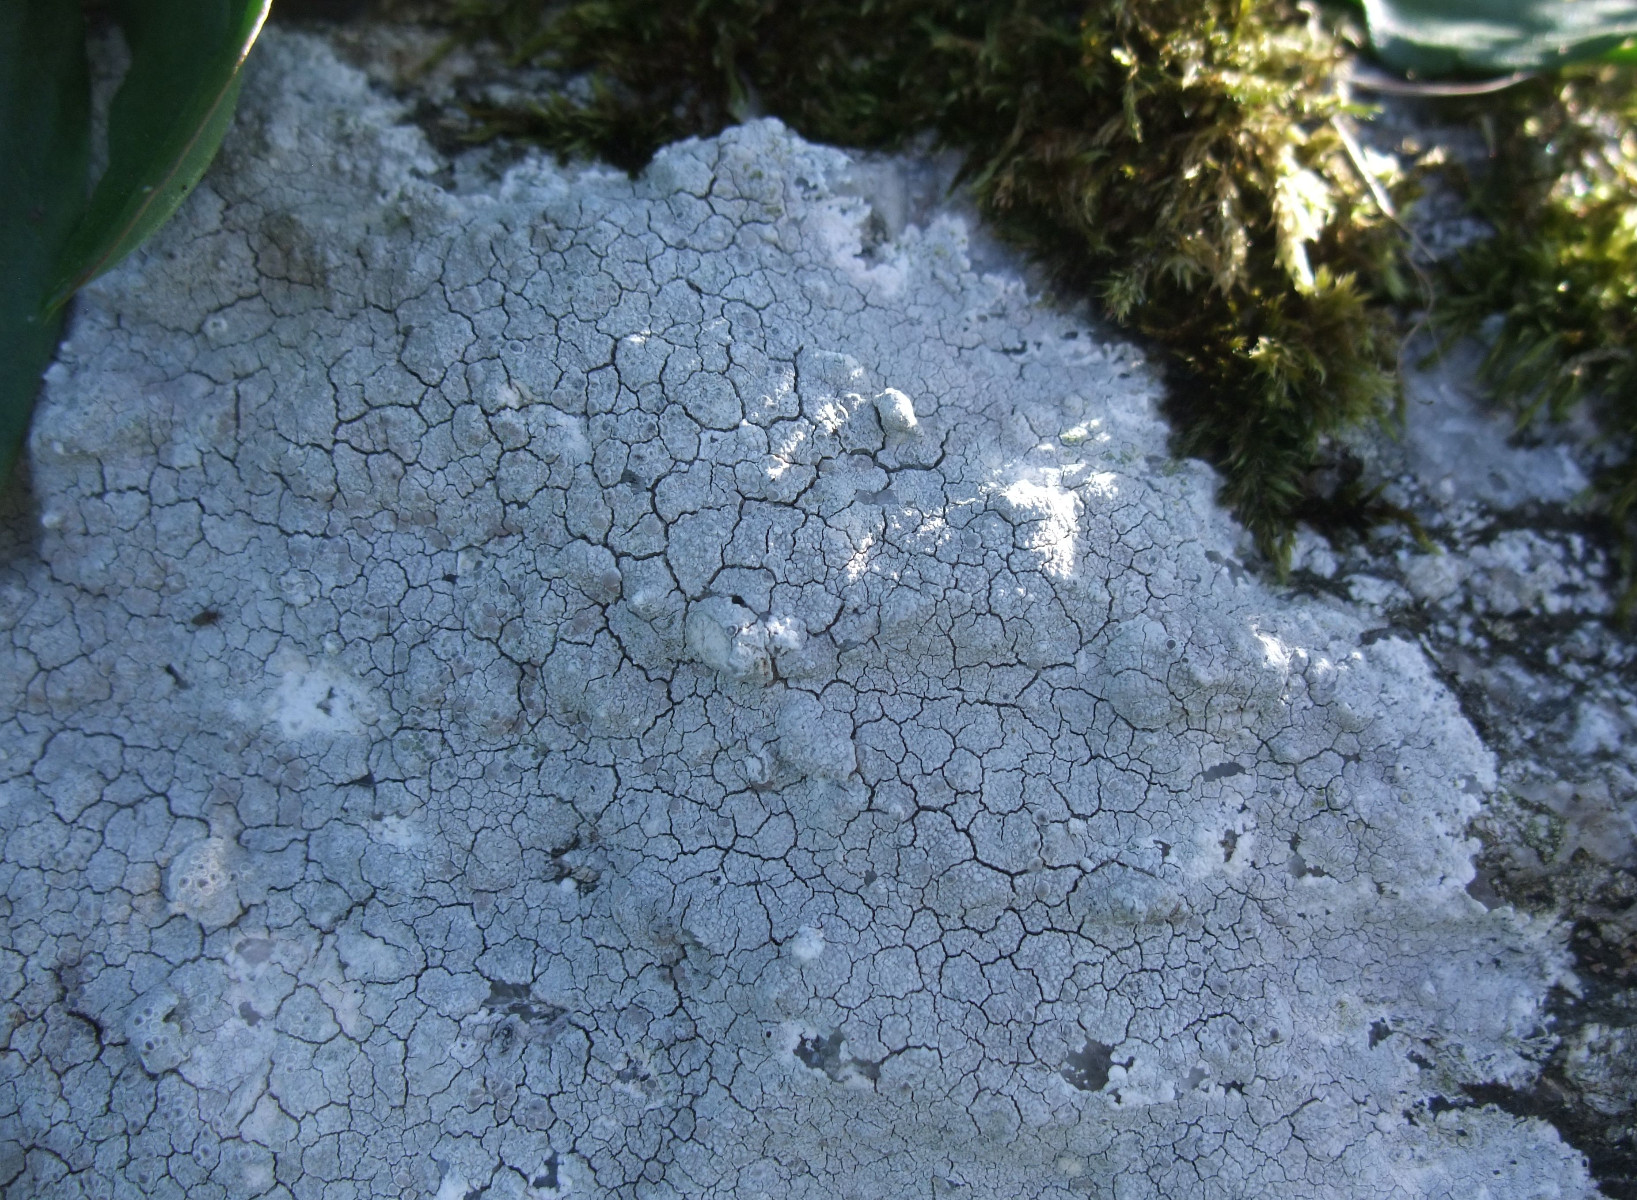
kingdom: Fungi
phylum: Ascomycota
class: Lecanoromycetes
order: Lecanorales
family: Lecanoraceae
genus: Glaucomaria
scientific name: Glaucomaria rupicola
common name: stengærde-kantskivelav
